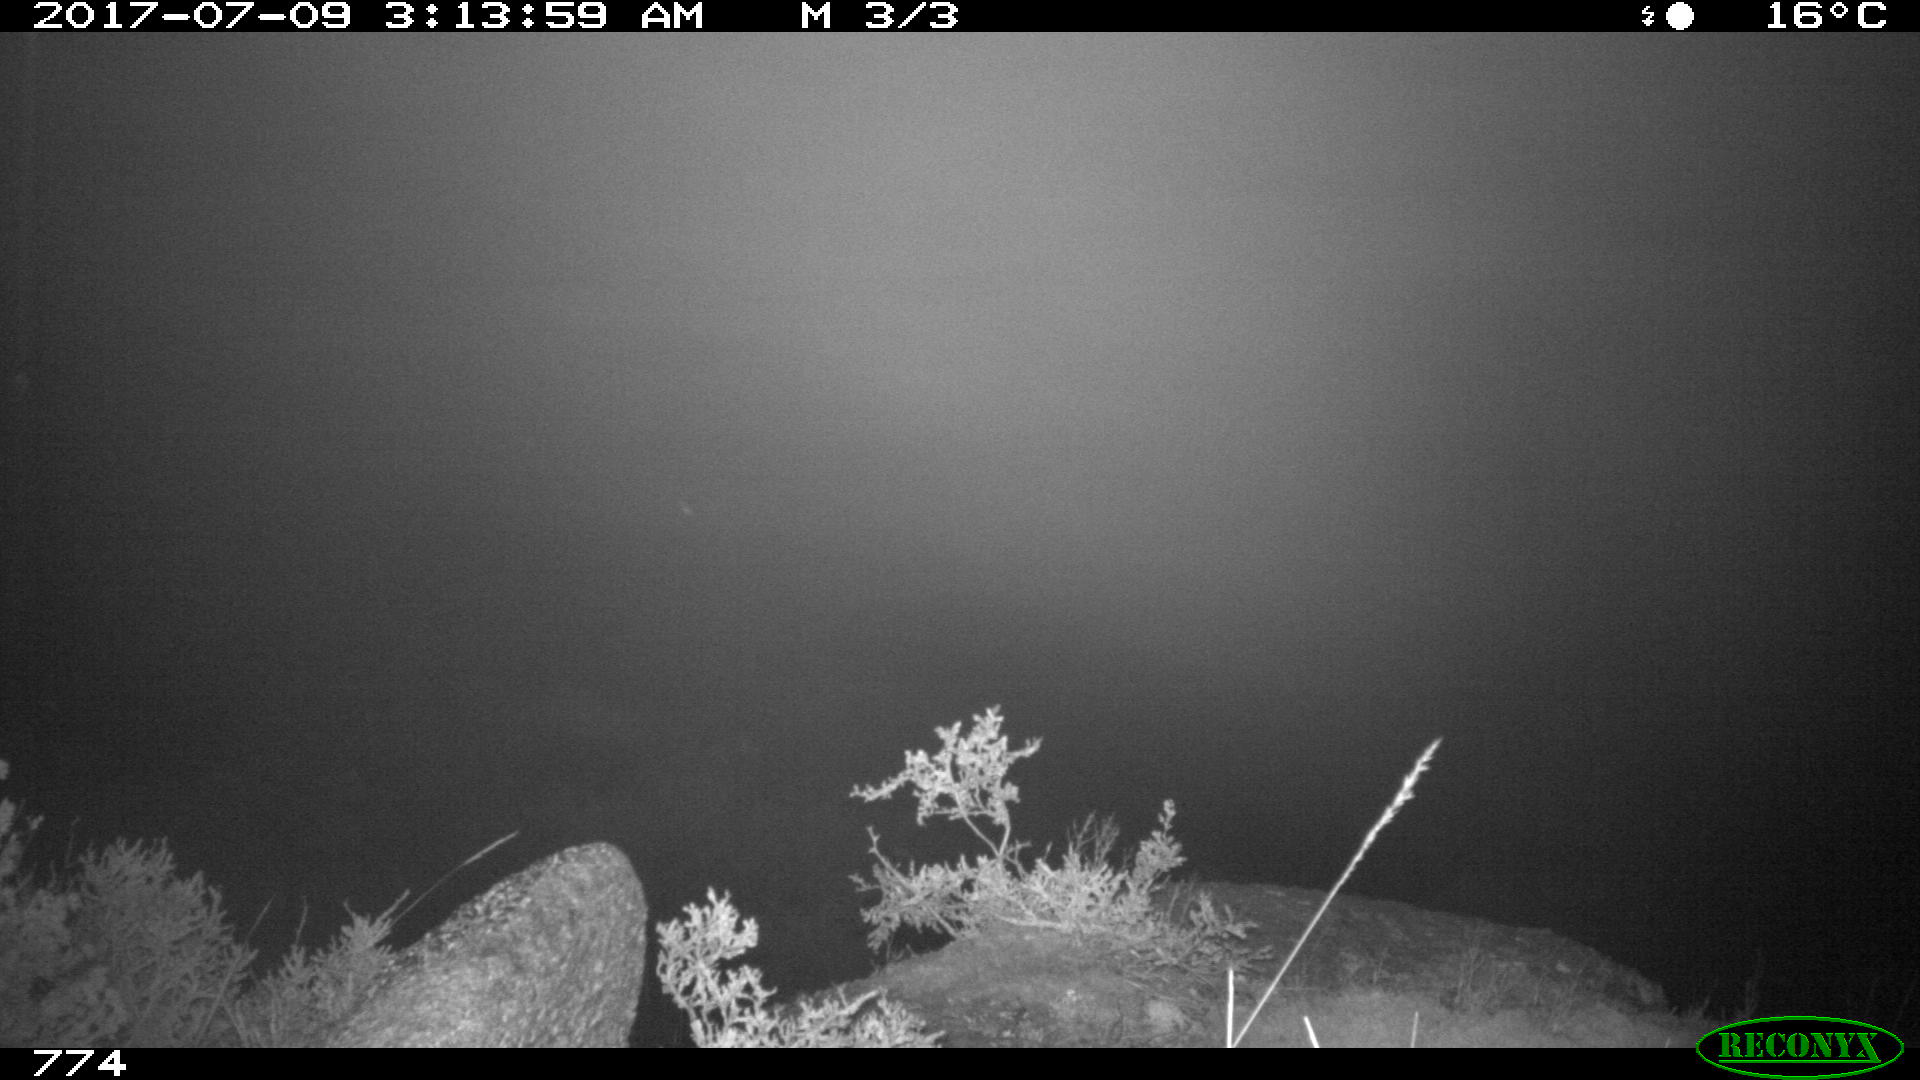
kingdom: Animalia
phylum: Chordata
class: Mammalia
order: Artiodactyla
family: Cervidae
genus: Capreolus
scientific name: Capreolus capreolus
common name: Western roe deer
